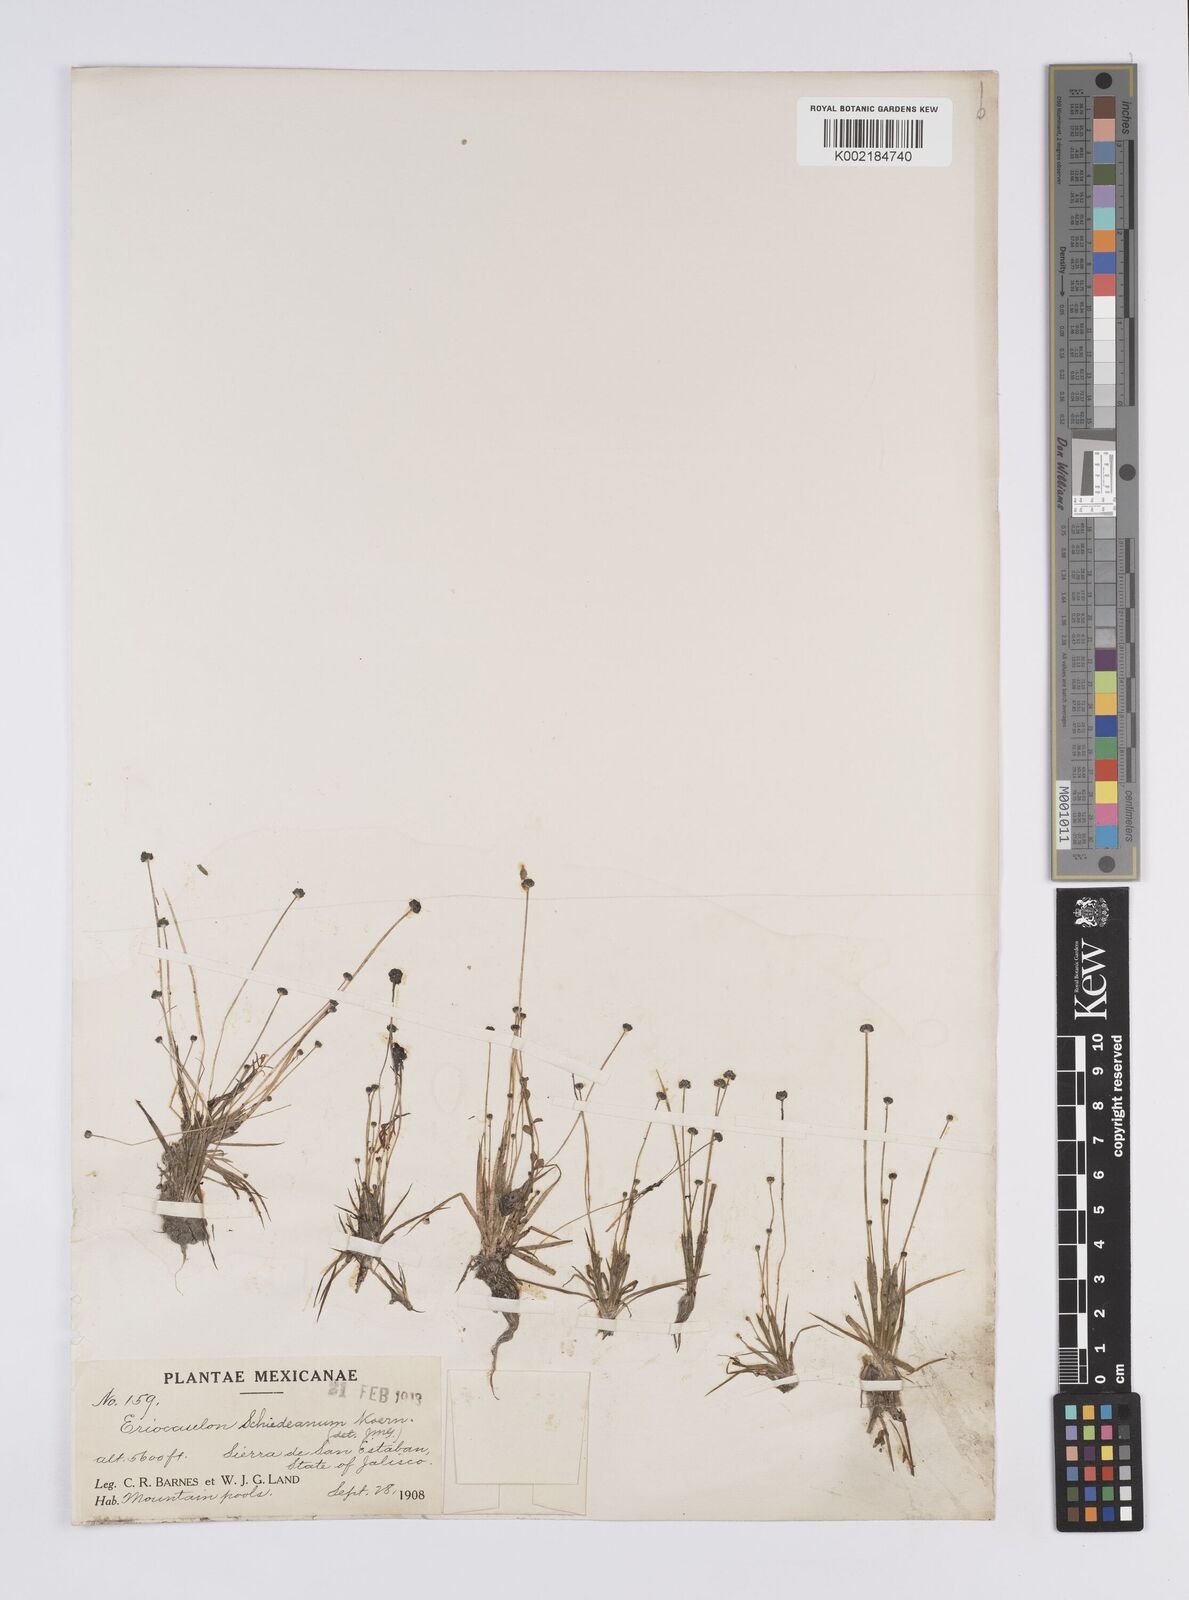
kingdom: Plantae
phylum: Tracheophyta
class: Liliopsida
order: Poales
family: Eriocaulaceae
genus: Eriocaulon
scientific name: Eriocaulon schiedeanum
